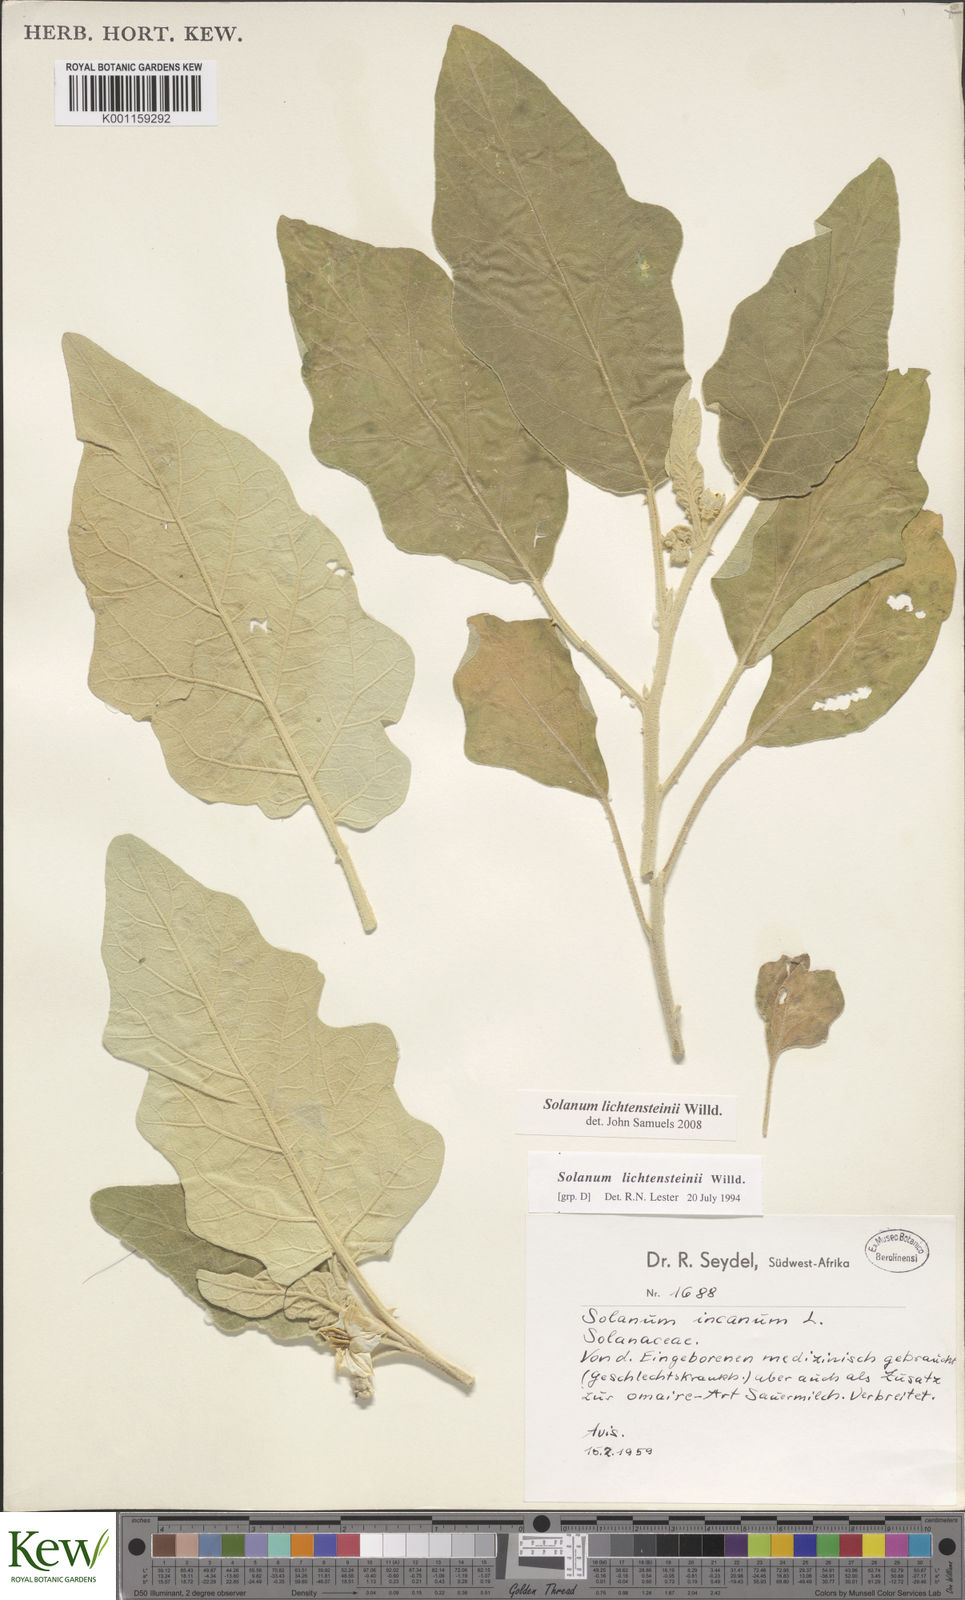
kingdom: Plantae
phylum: Tracheophyta
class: Magnoliopsida
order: Solanales
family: Solanaceae
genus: Solanum
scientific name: Solanum lichtensteinii
